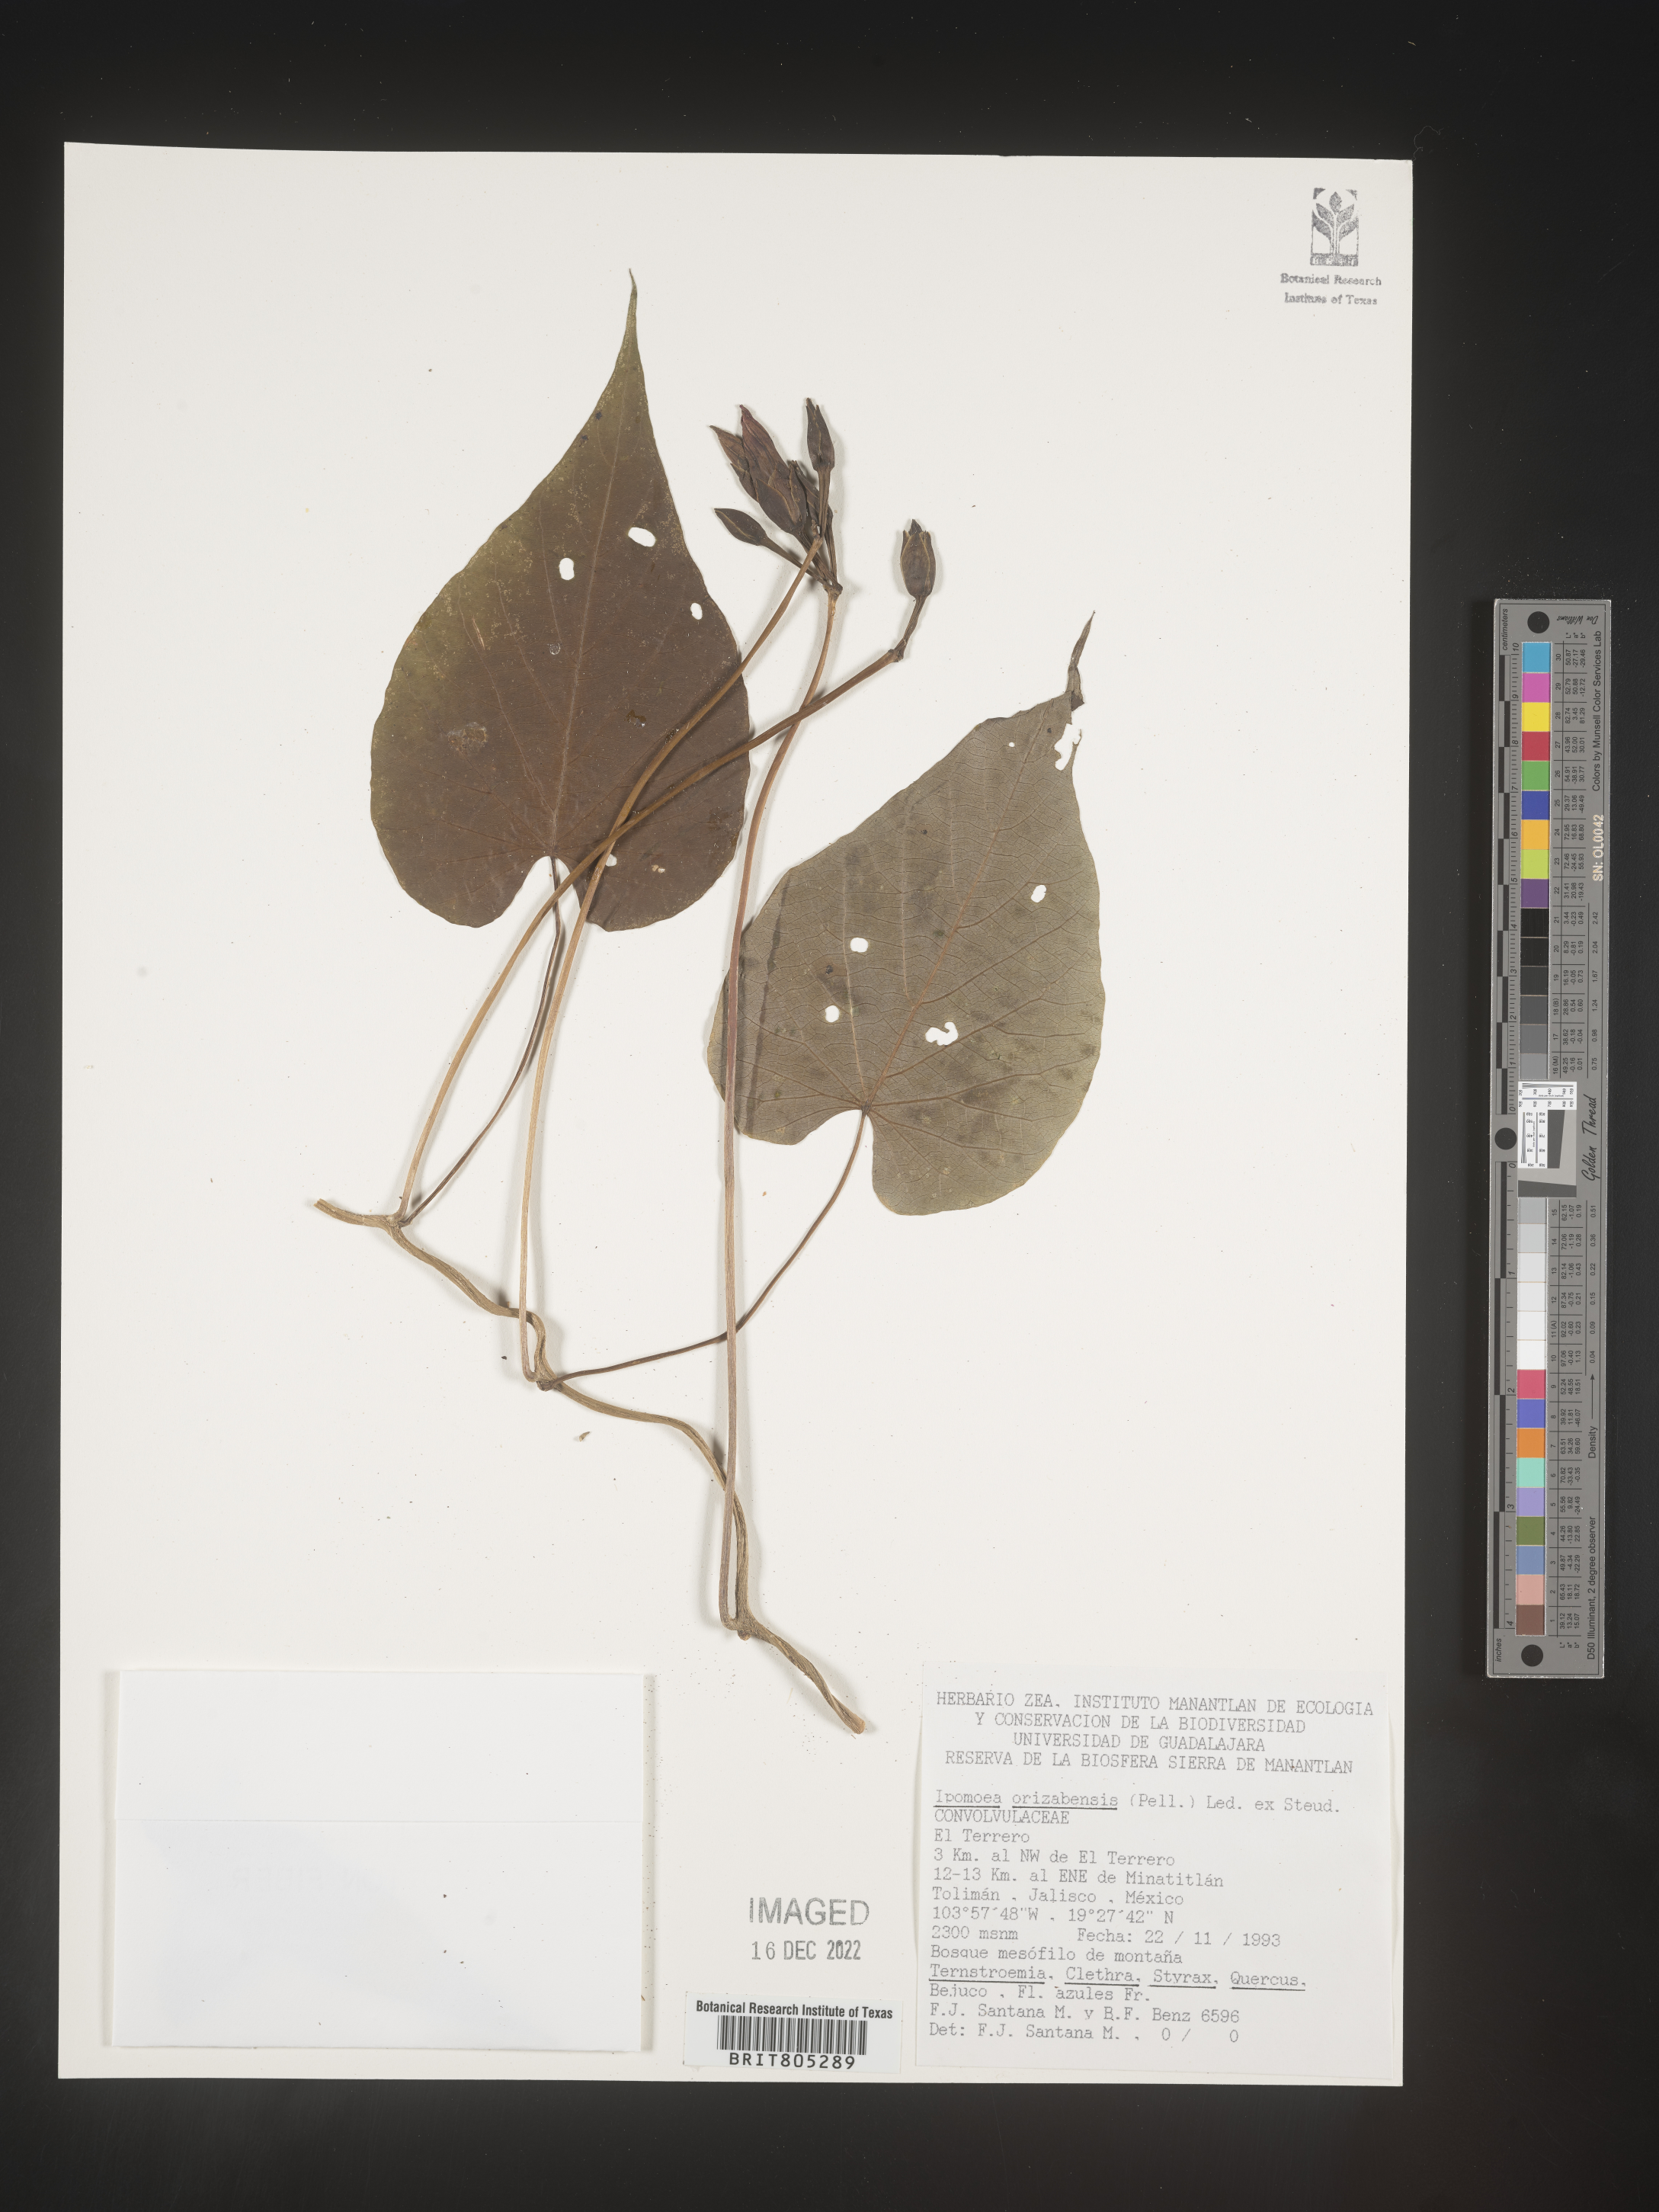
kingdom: Plantae
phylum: Tracheophyta
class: Magnoliopsida
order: Solanales
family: Convolvulaceae
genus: Ipomoea
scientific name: Ipomoea
